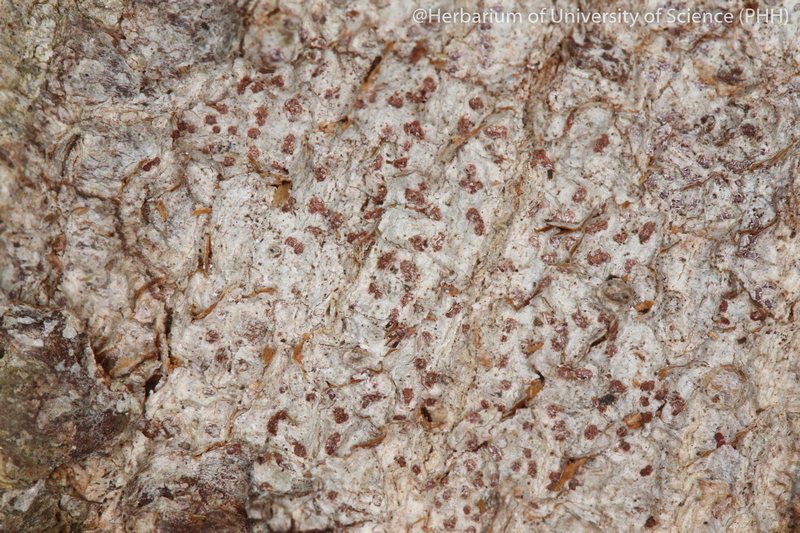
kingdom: Fungi
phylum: Ascomycota
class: Arthoniomycetes
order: Arthoniales
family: Arthoniaceae
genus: Arthonia
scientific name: Arthonia
